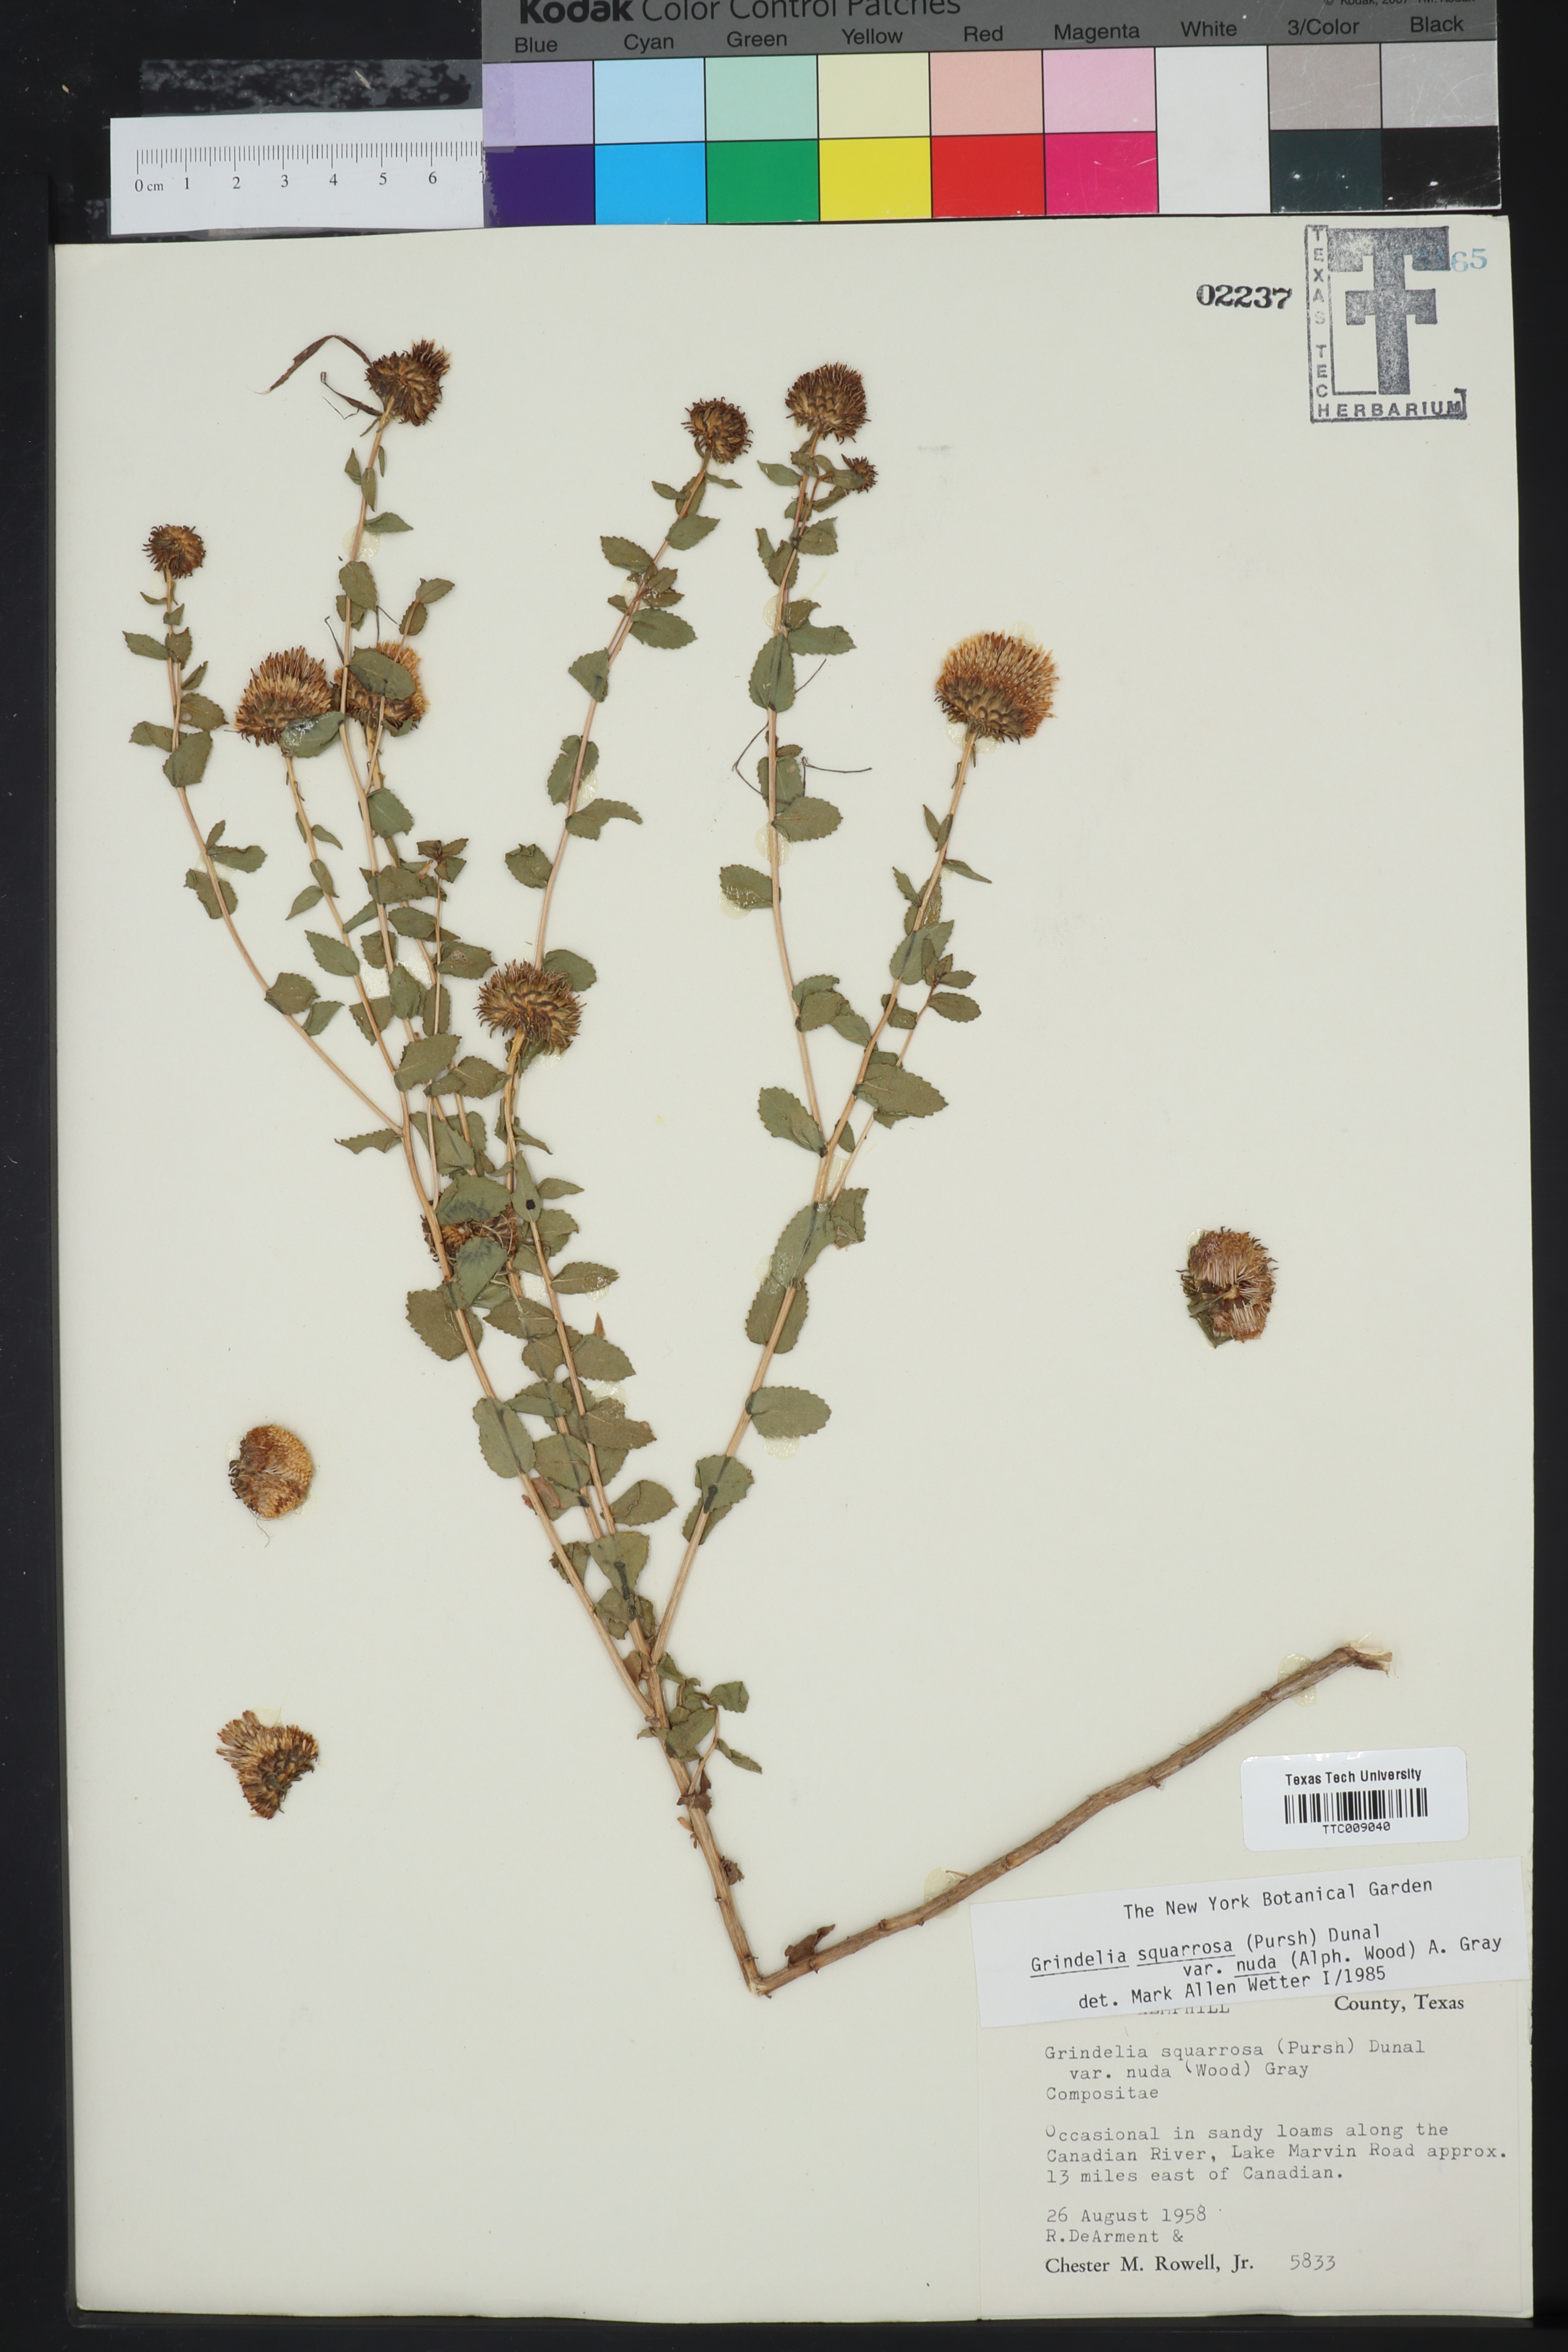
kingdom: Plantae
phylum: Tracheophyta
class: Magnoliopsida
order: Asterales
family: Asteraceae
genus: Grindelia
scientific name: Grindelia nuda
